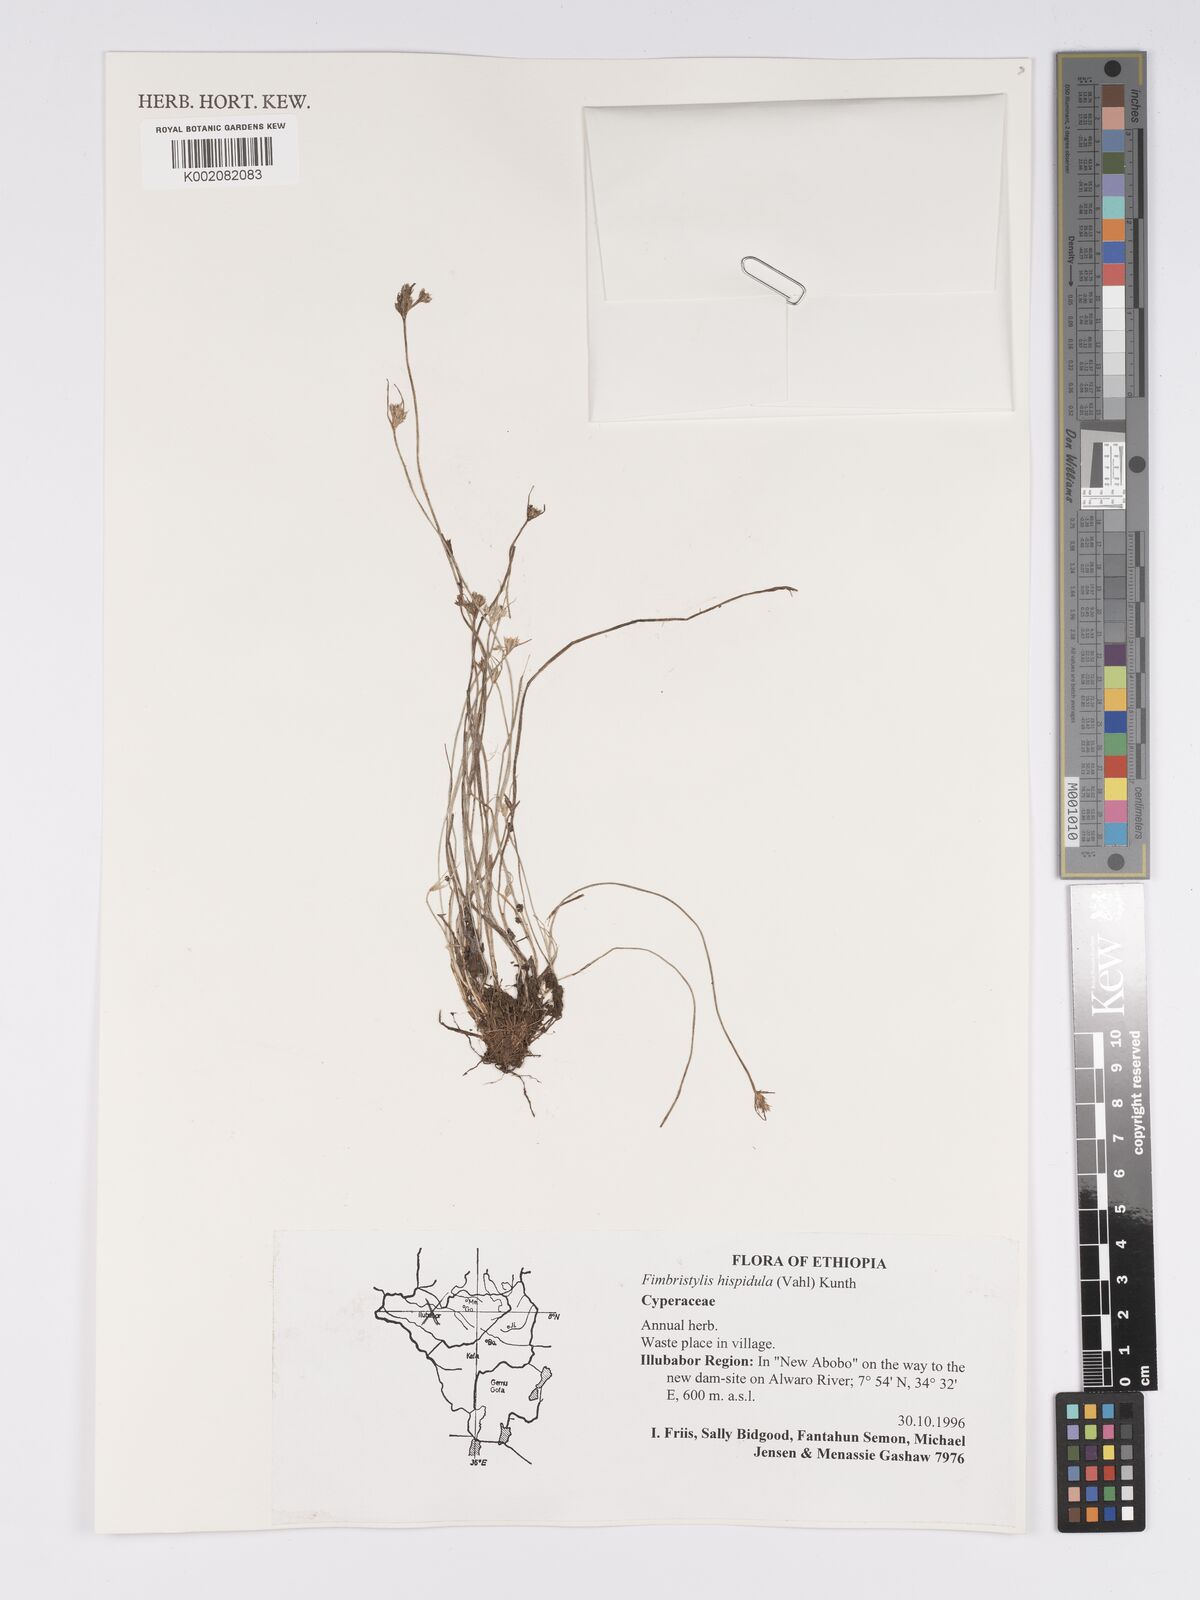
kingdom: Plantae
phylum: Tracheophyta
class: Liliopsida
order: Poales
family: Cyperaceae
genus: Bulbostylis
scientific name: Bulbostylis hispidula
